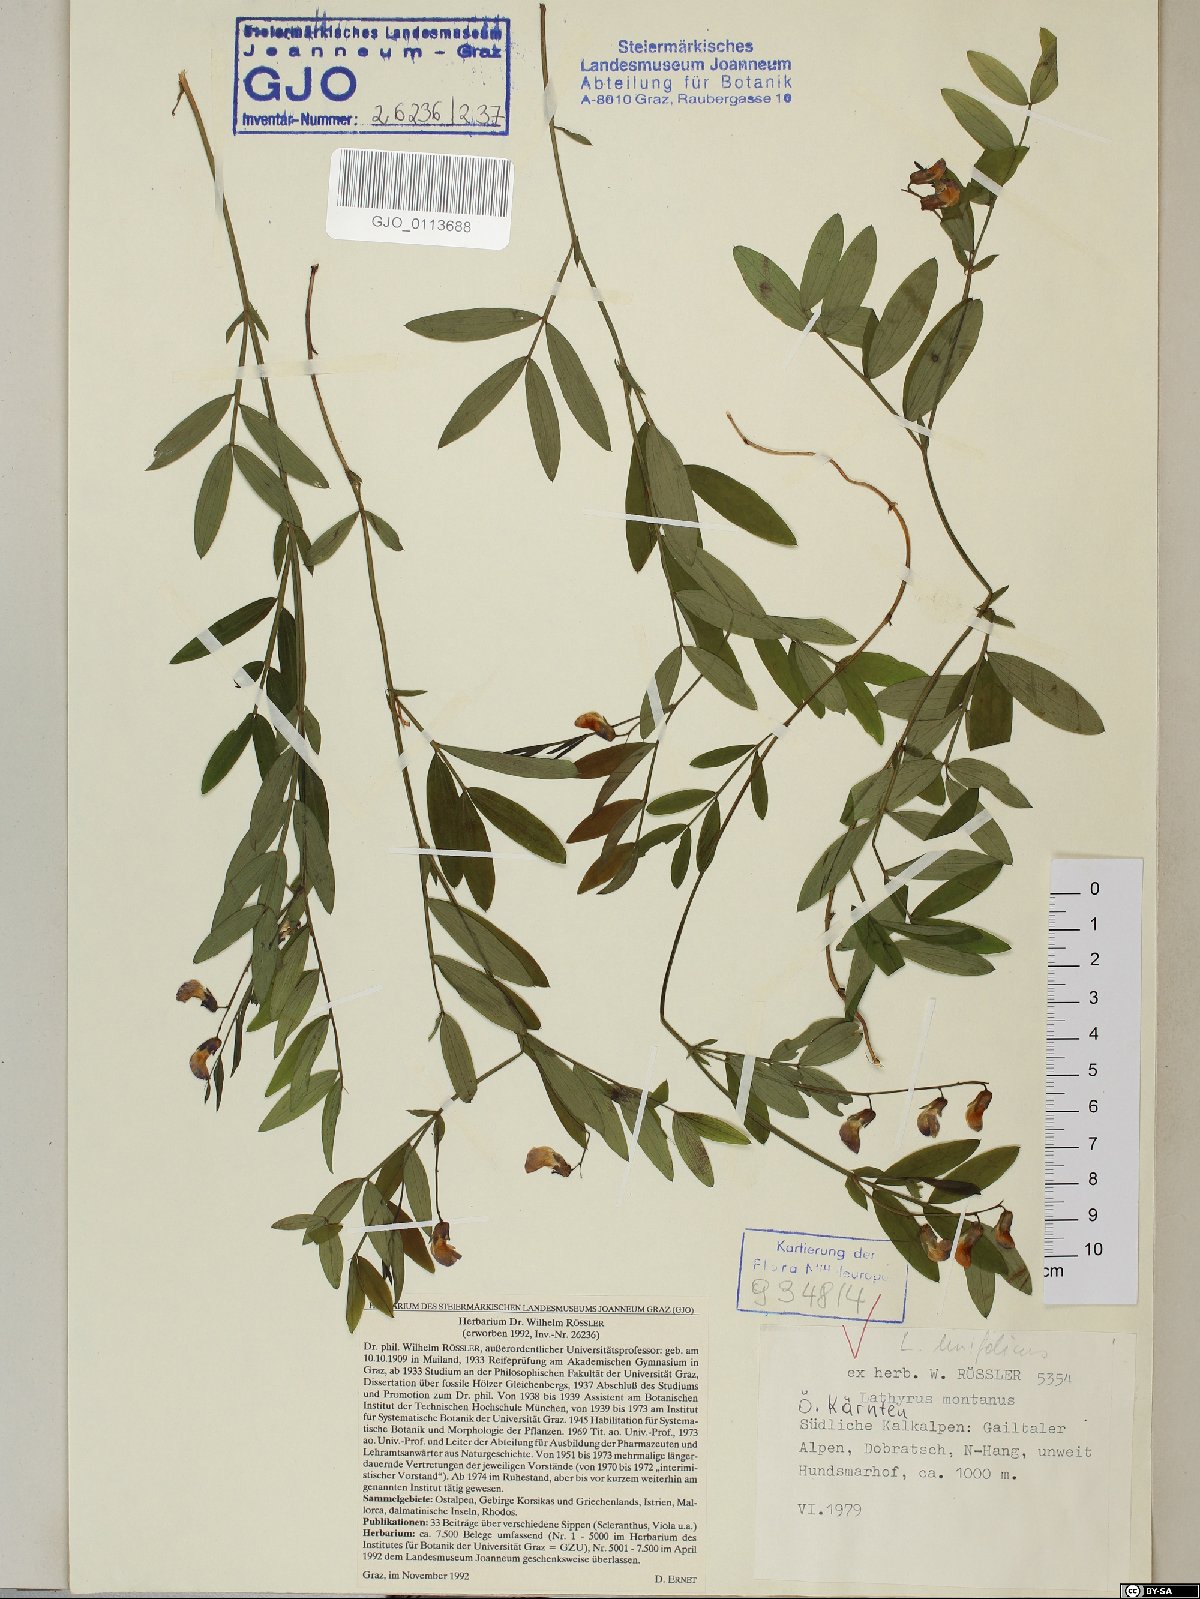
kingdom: Plantae
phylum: Tracheophyta
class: Magnoliopsida
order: Fabales
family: Fabaceae
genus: Lathyrus
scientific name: Lathyrus linifolius
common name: Bitter-vetch
